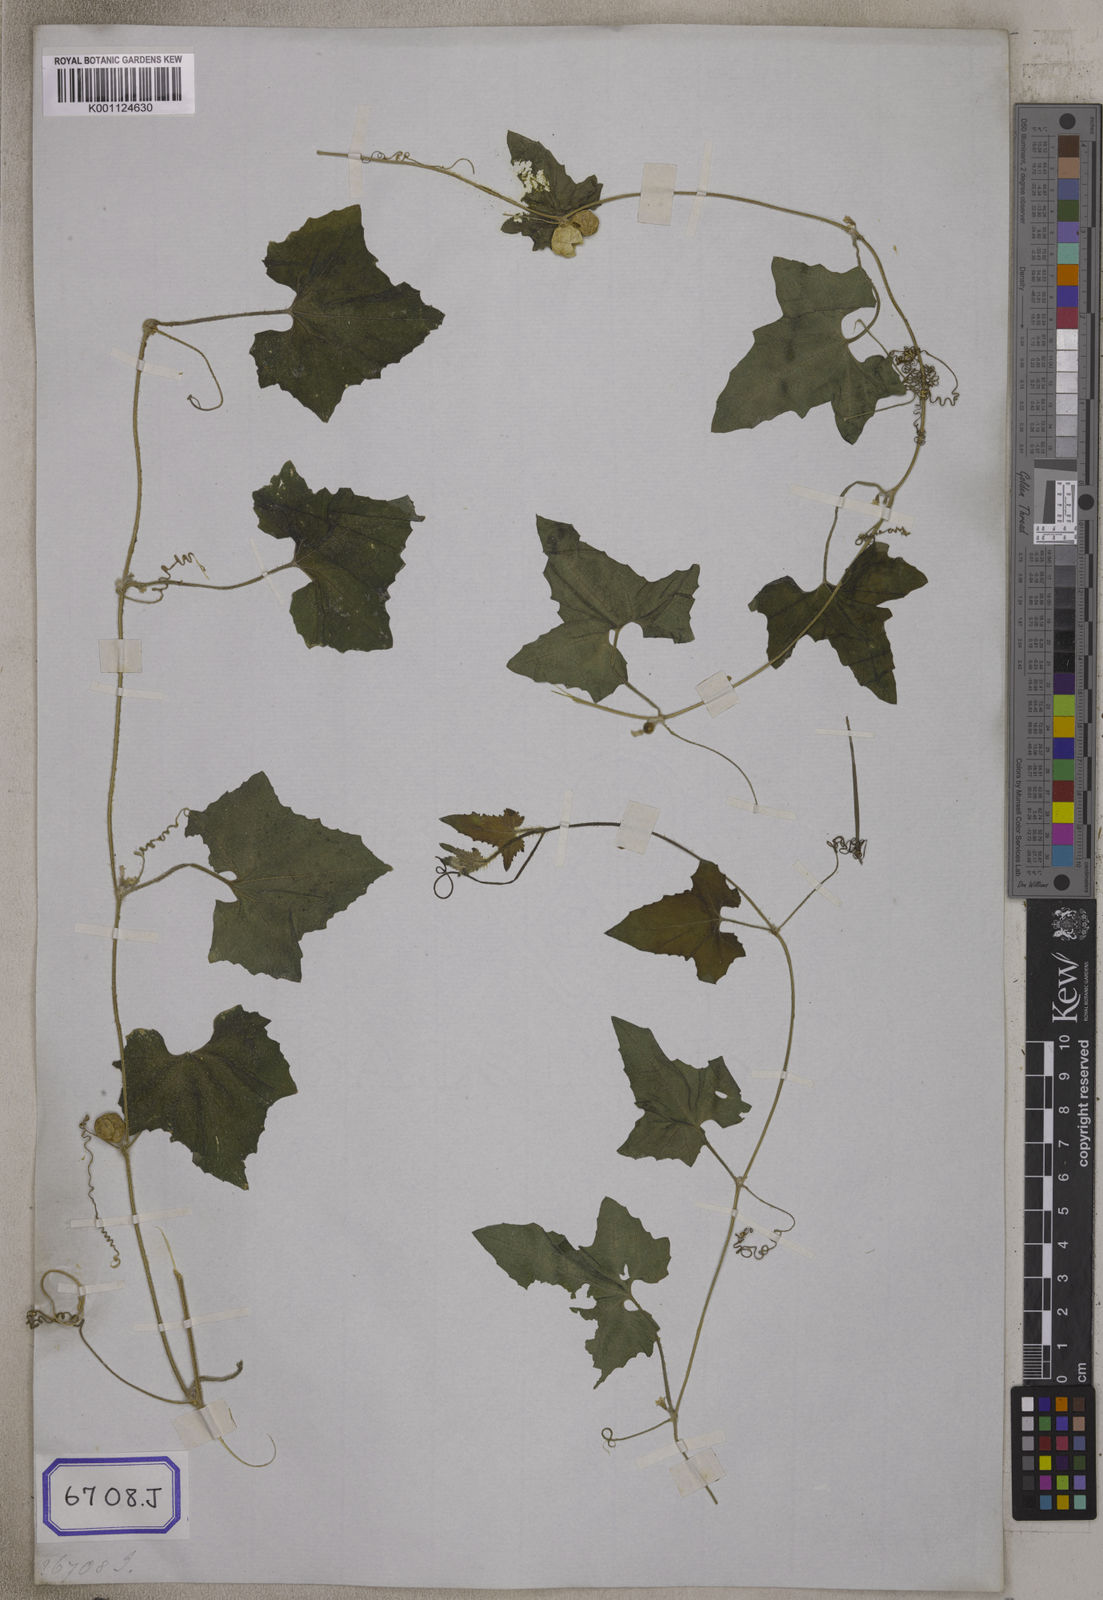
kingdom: Plantae
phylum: Tracheophyta
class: Magnoliopsida
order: Cucurbitales
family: Cucurbitaceae
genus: Bryonia
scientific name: Bryonia
